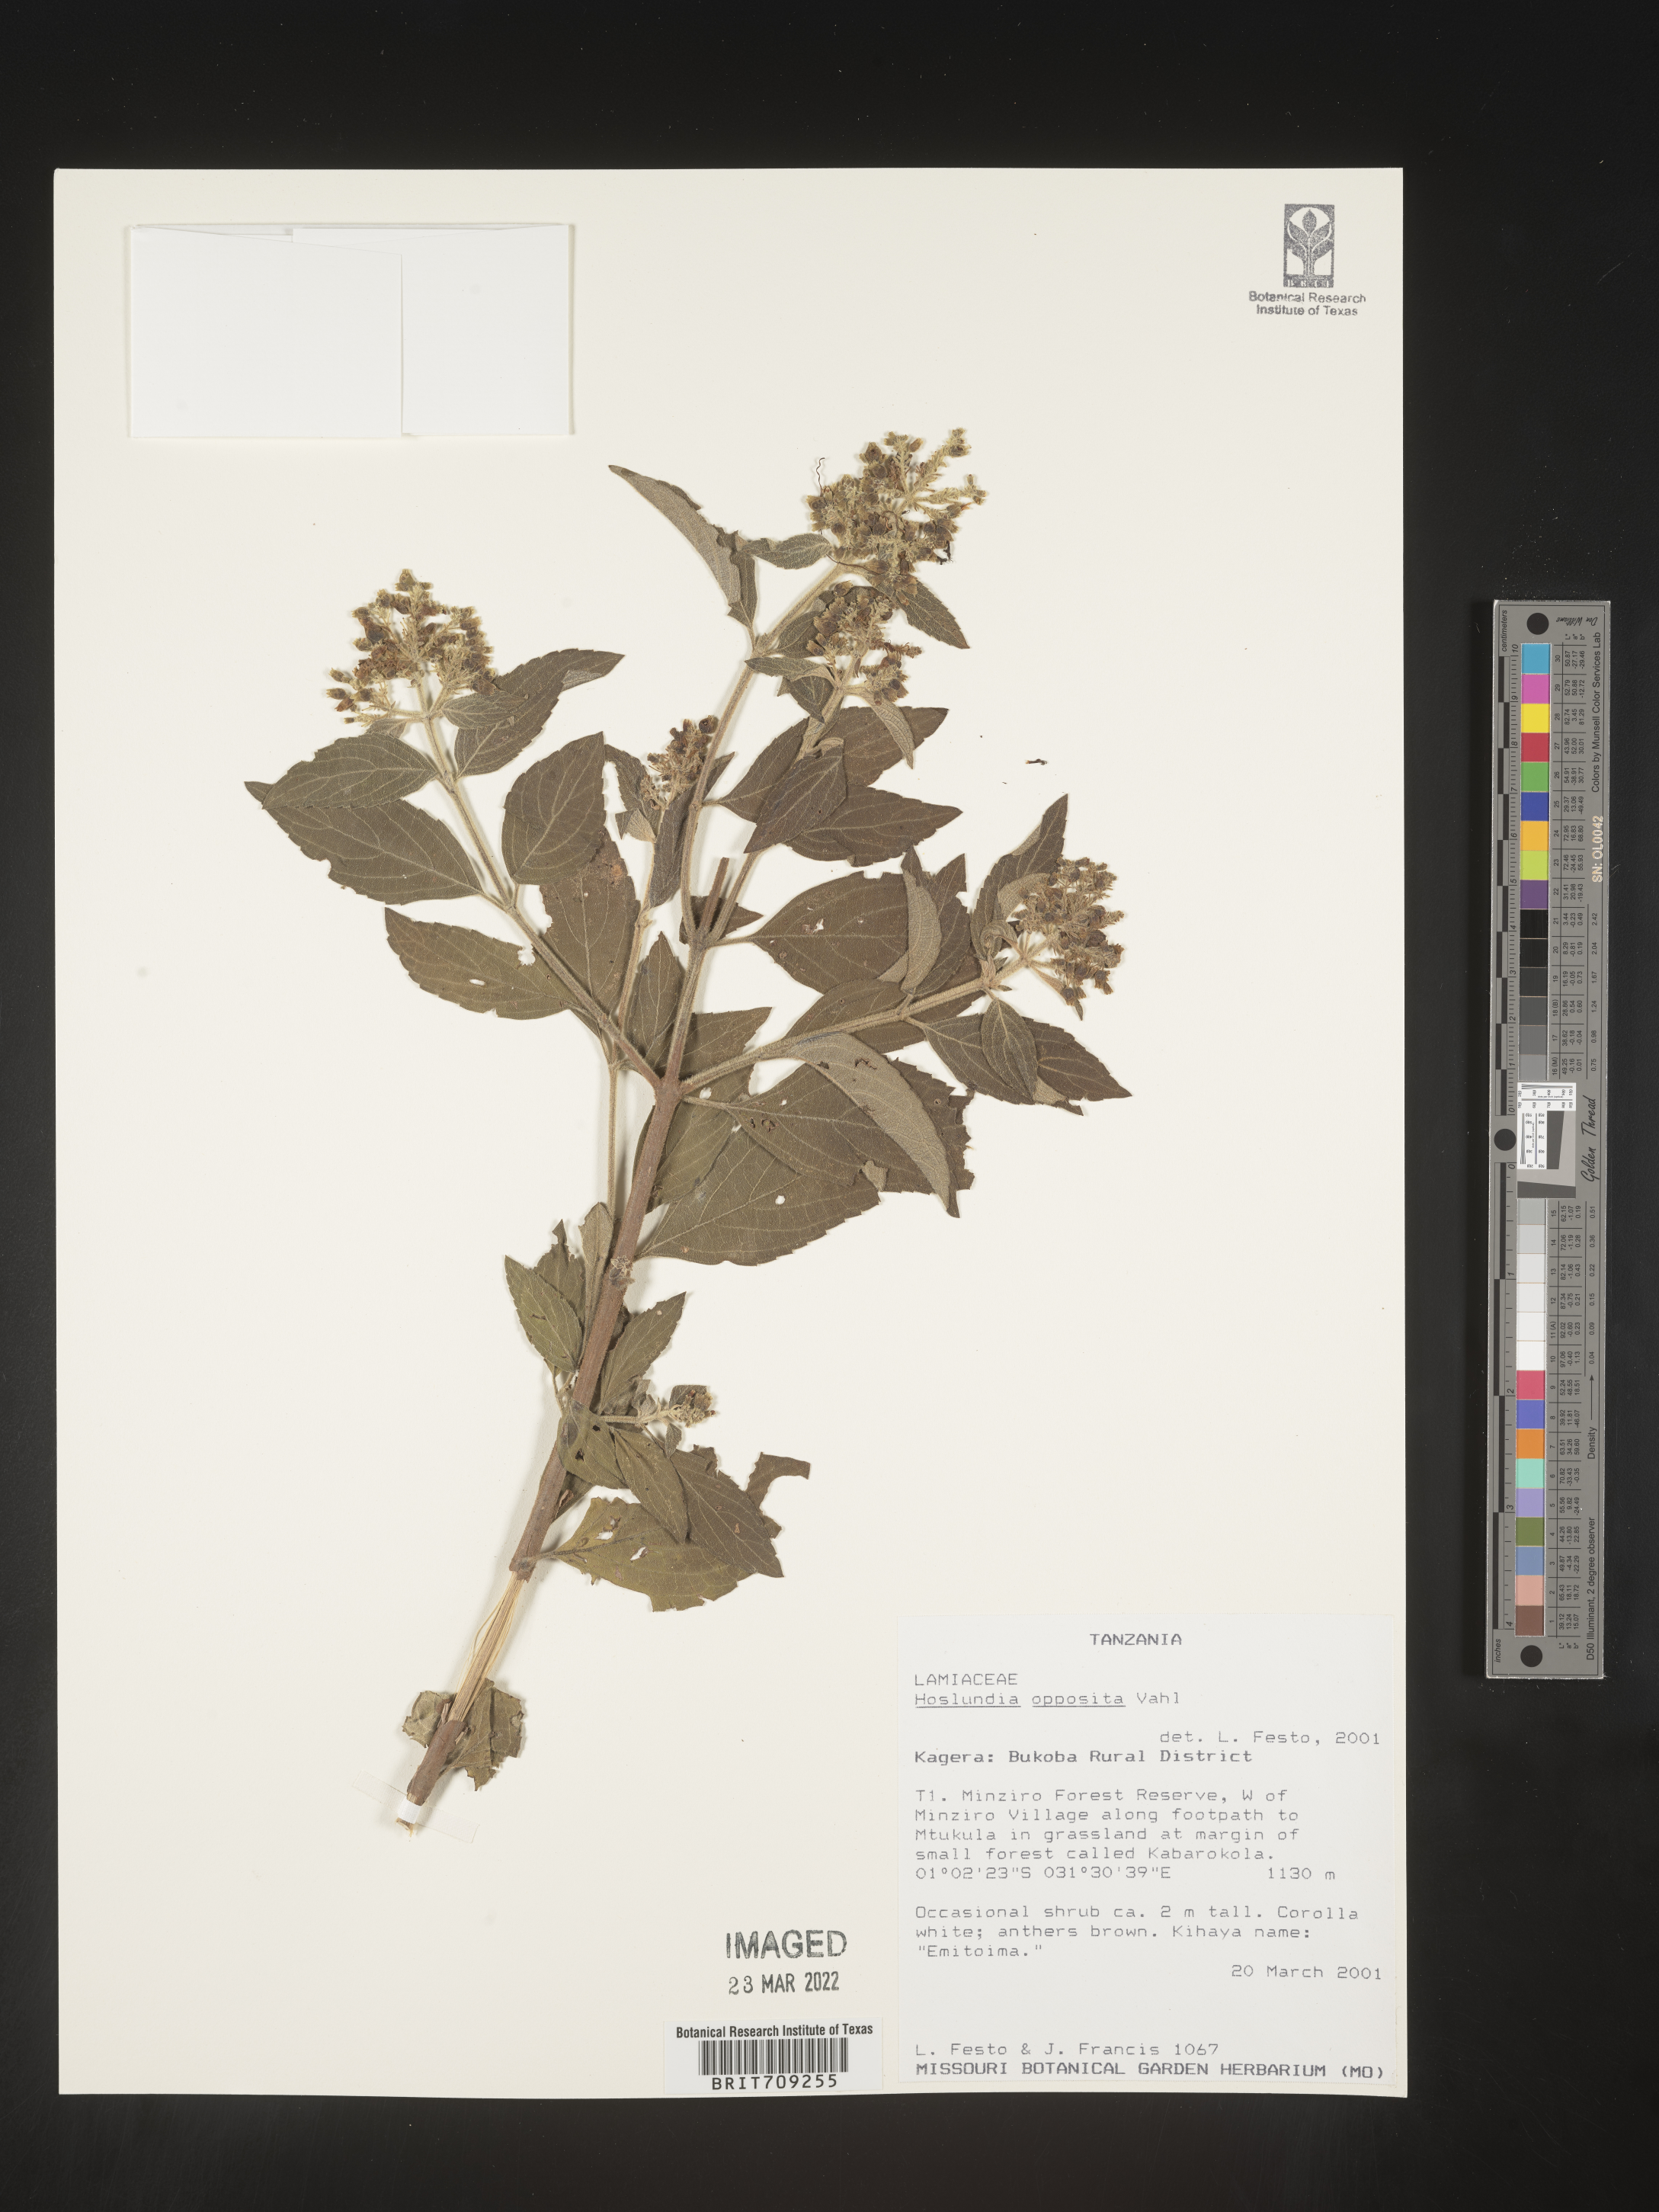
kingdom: Plantae
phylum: Tracheophyta
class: Magnoliopsida
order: Lamiales
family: Lamiaceae
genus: Hoslundia
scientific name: Hoslundia opposita
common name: Kamyuye
